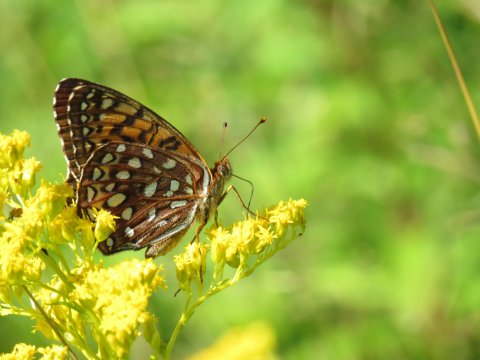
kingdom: Animalia
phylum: Arthropoda
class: Insecta
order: Lepidoptera
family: Nymphalidae
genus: Speyeria
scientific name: Speyeria atlantis
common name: Atlantis Fritillary
